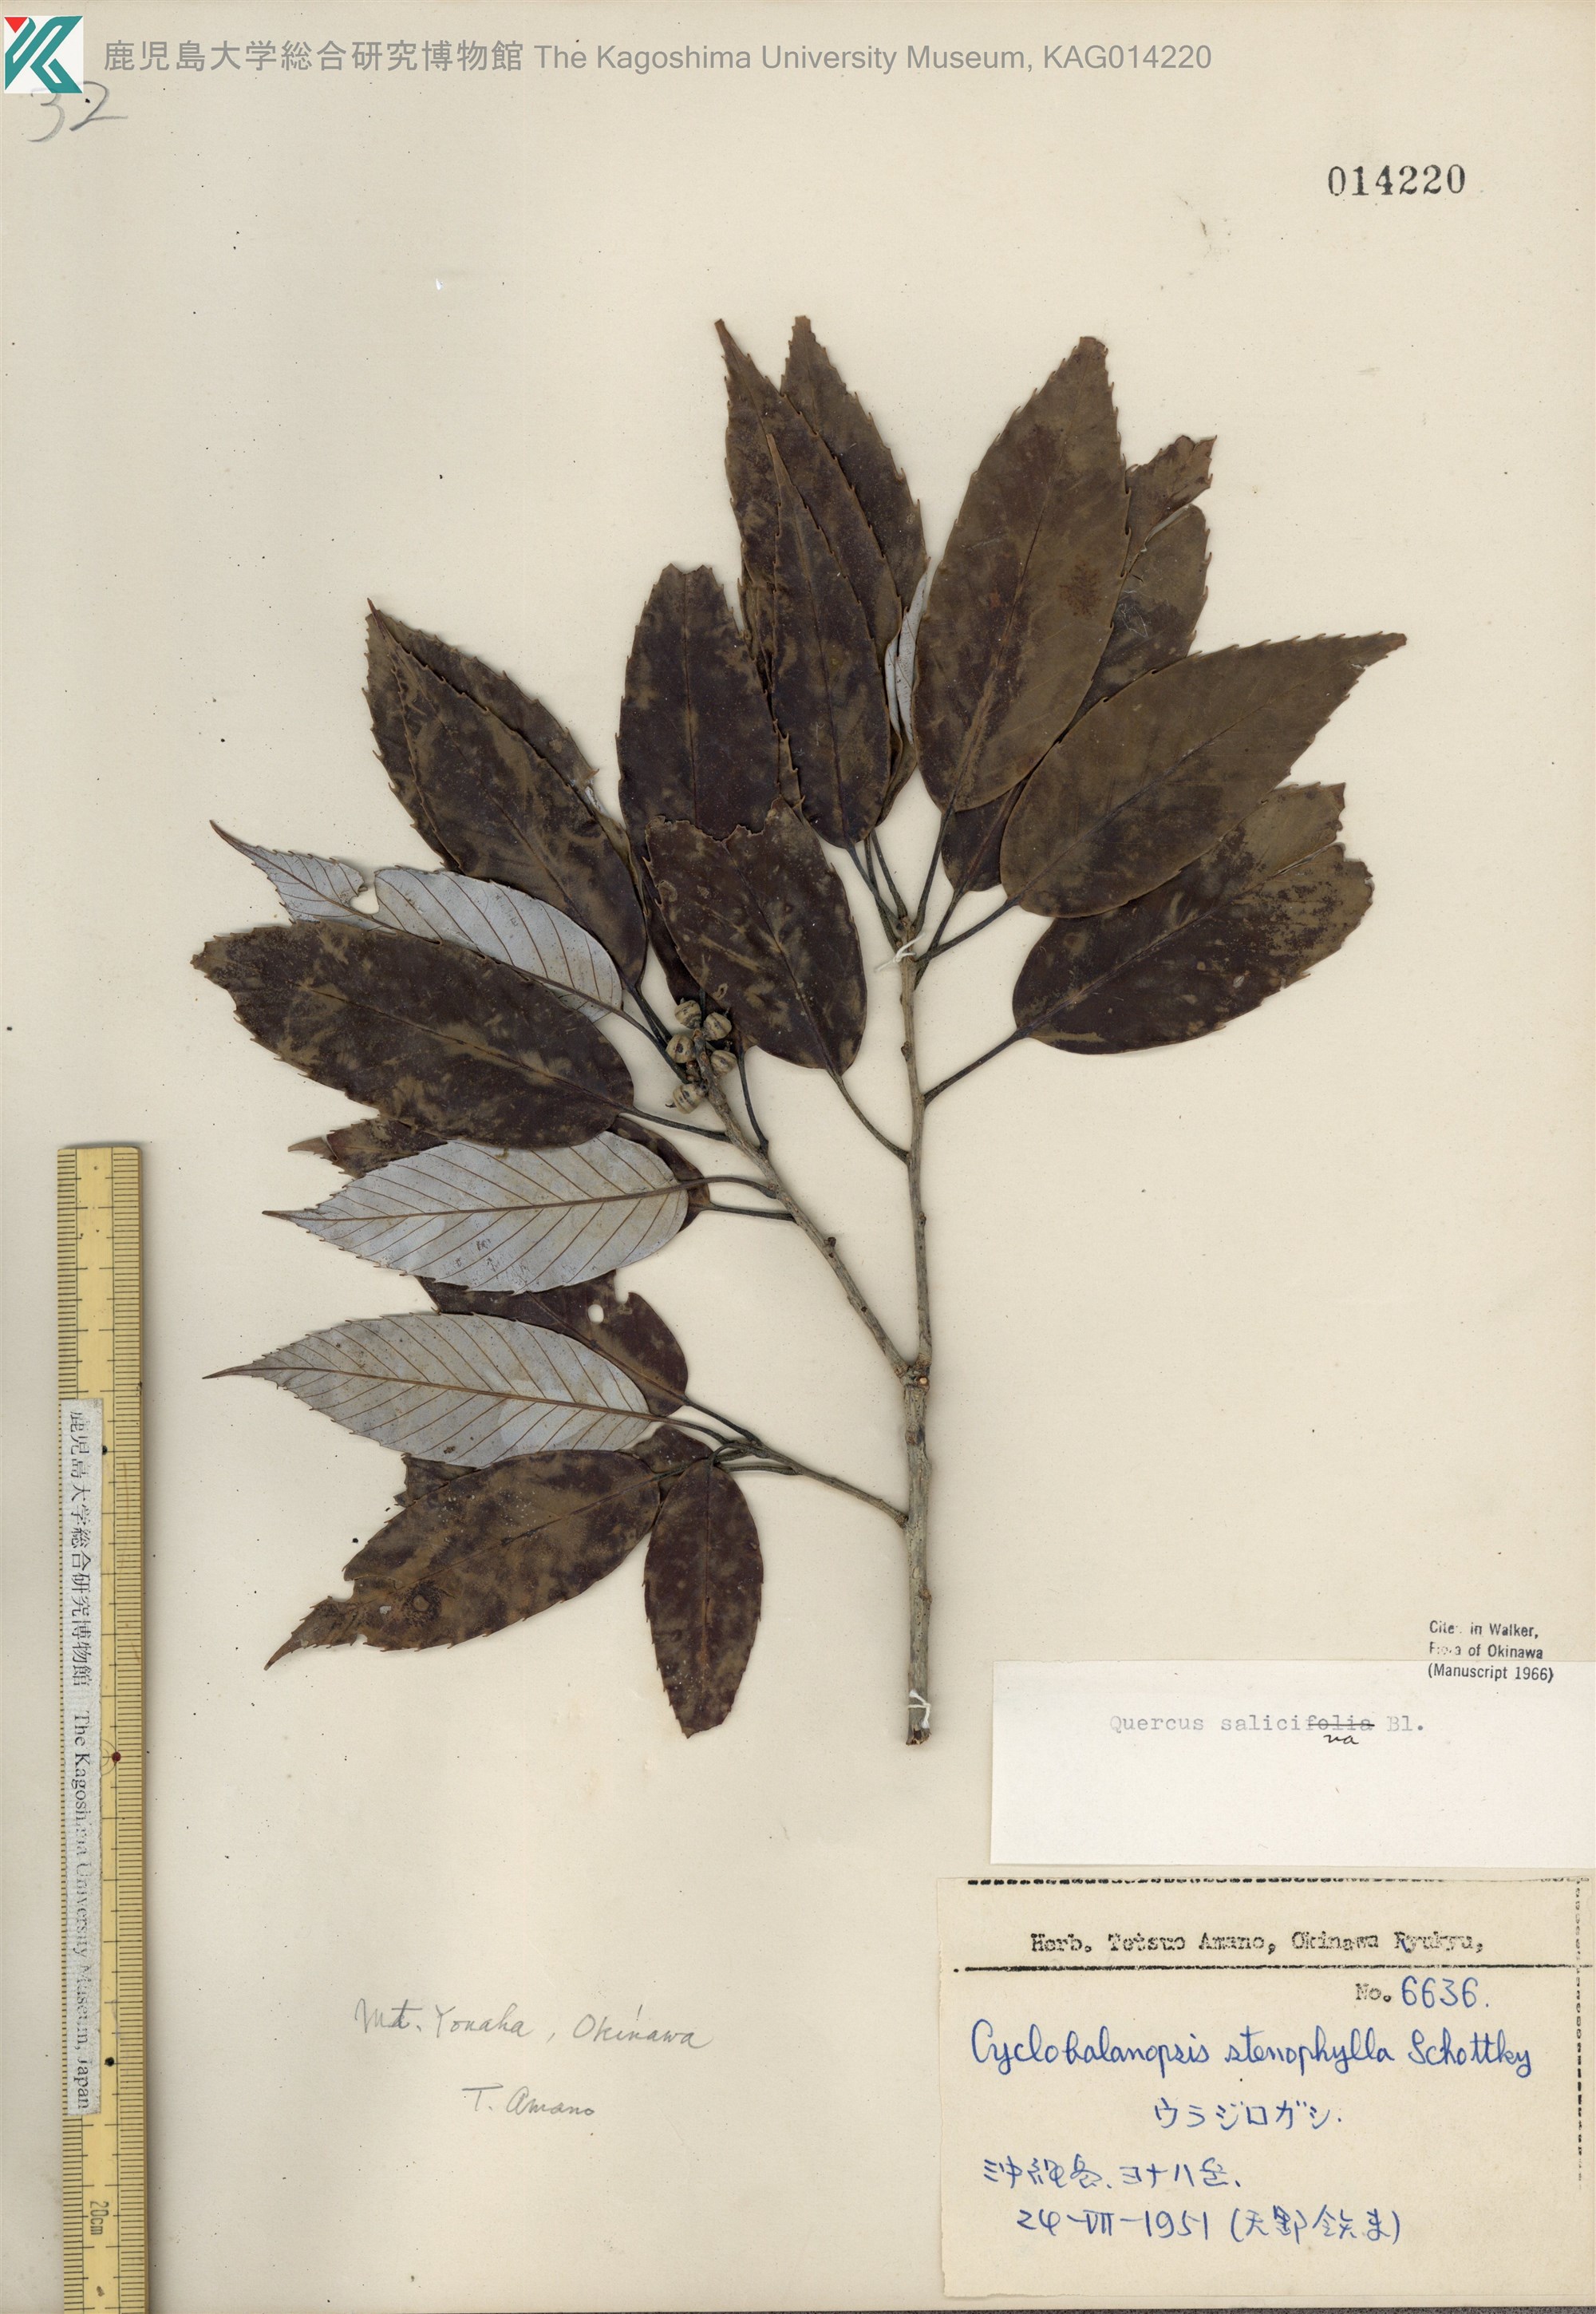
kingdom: Plantae
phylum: Tracheophyta
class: Magnoliopsida
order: Fagales
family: Fagaceae
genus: Quercus
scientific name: Quercus salicina
